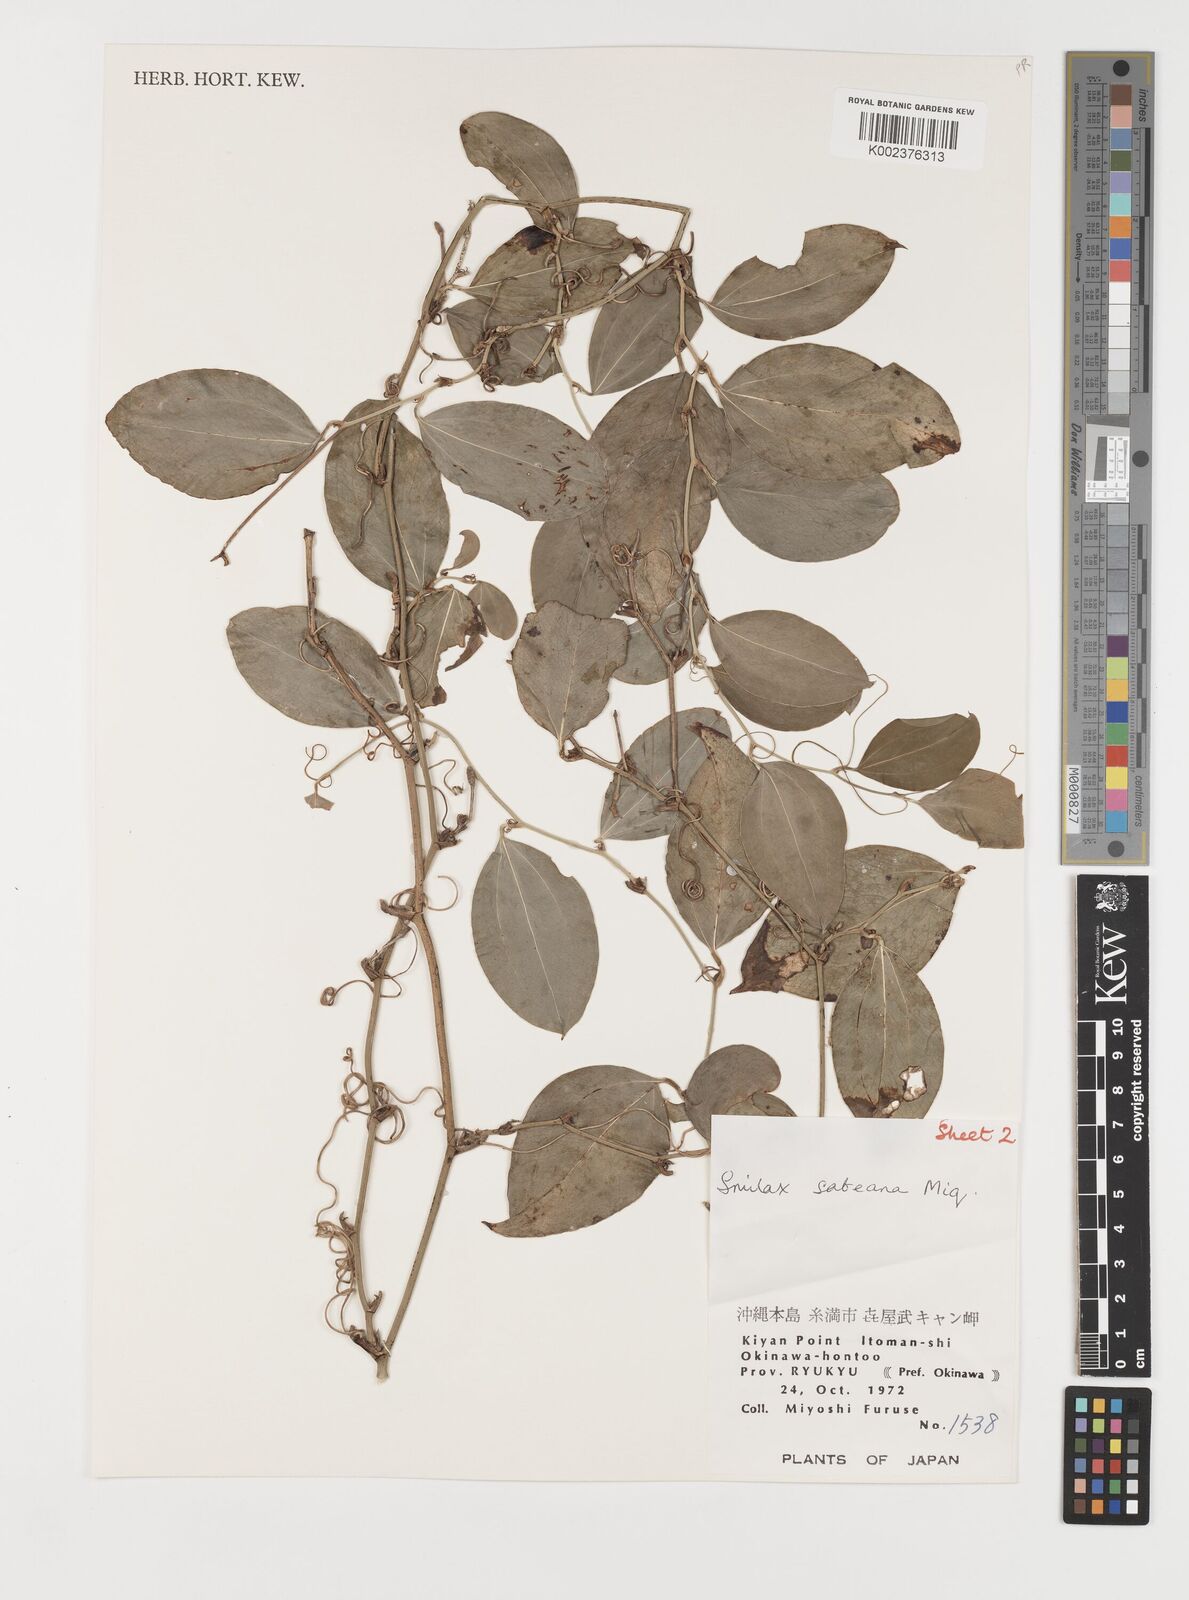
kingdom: Plantae
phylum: Tracheophyta
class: Liliopsida
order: Liliales
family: Smilacaceae
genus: Smilax
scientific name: Smilax sebeana
